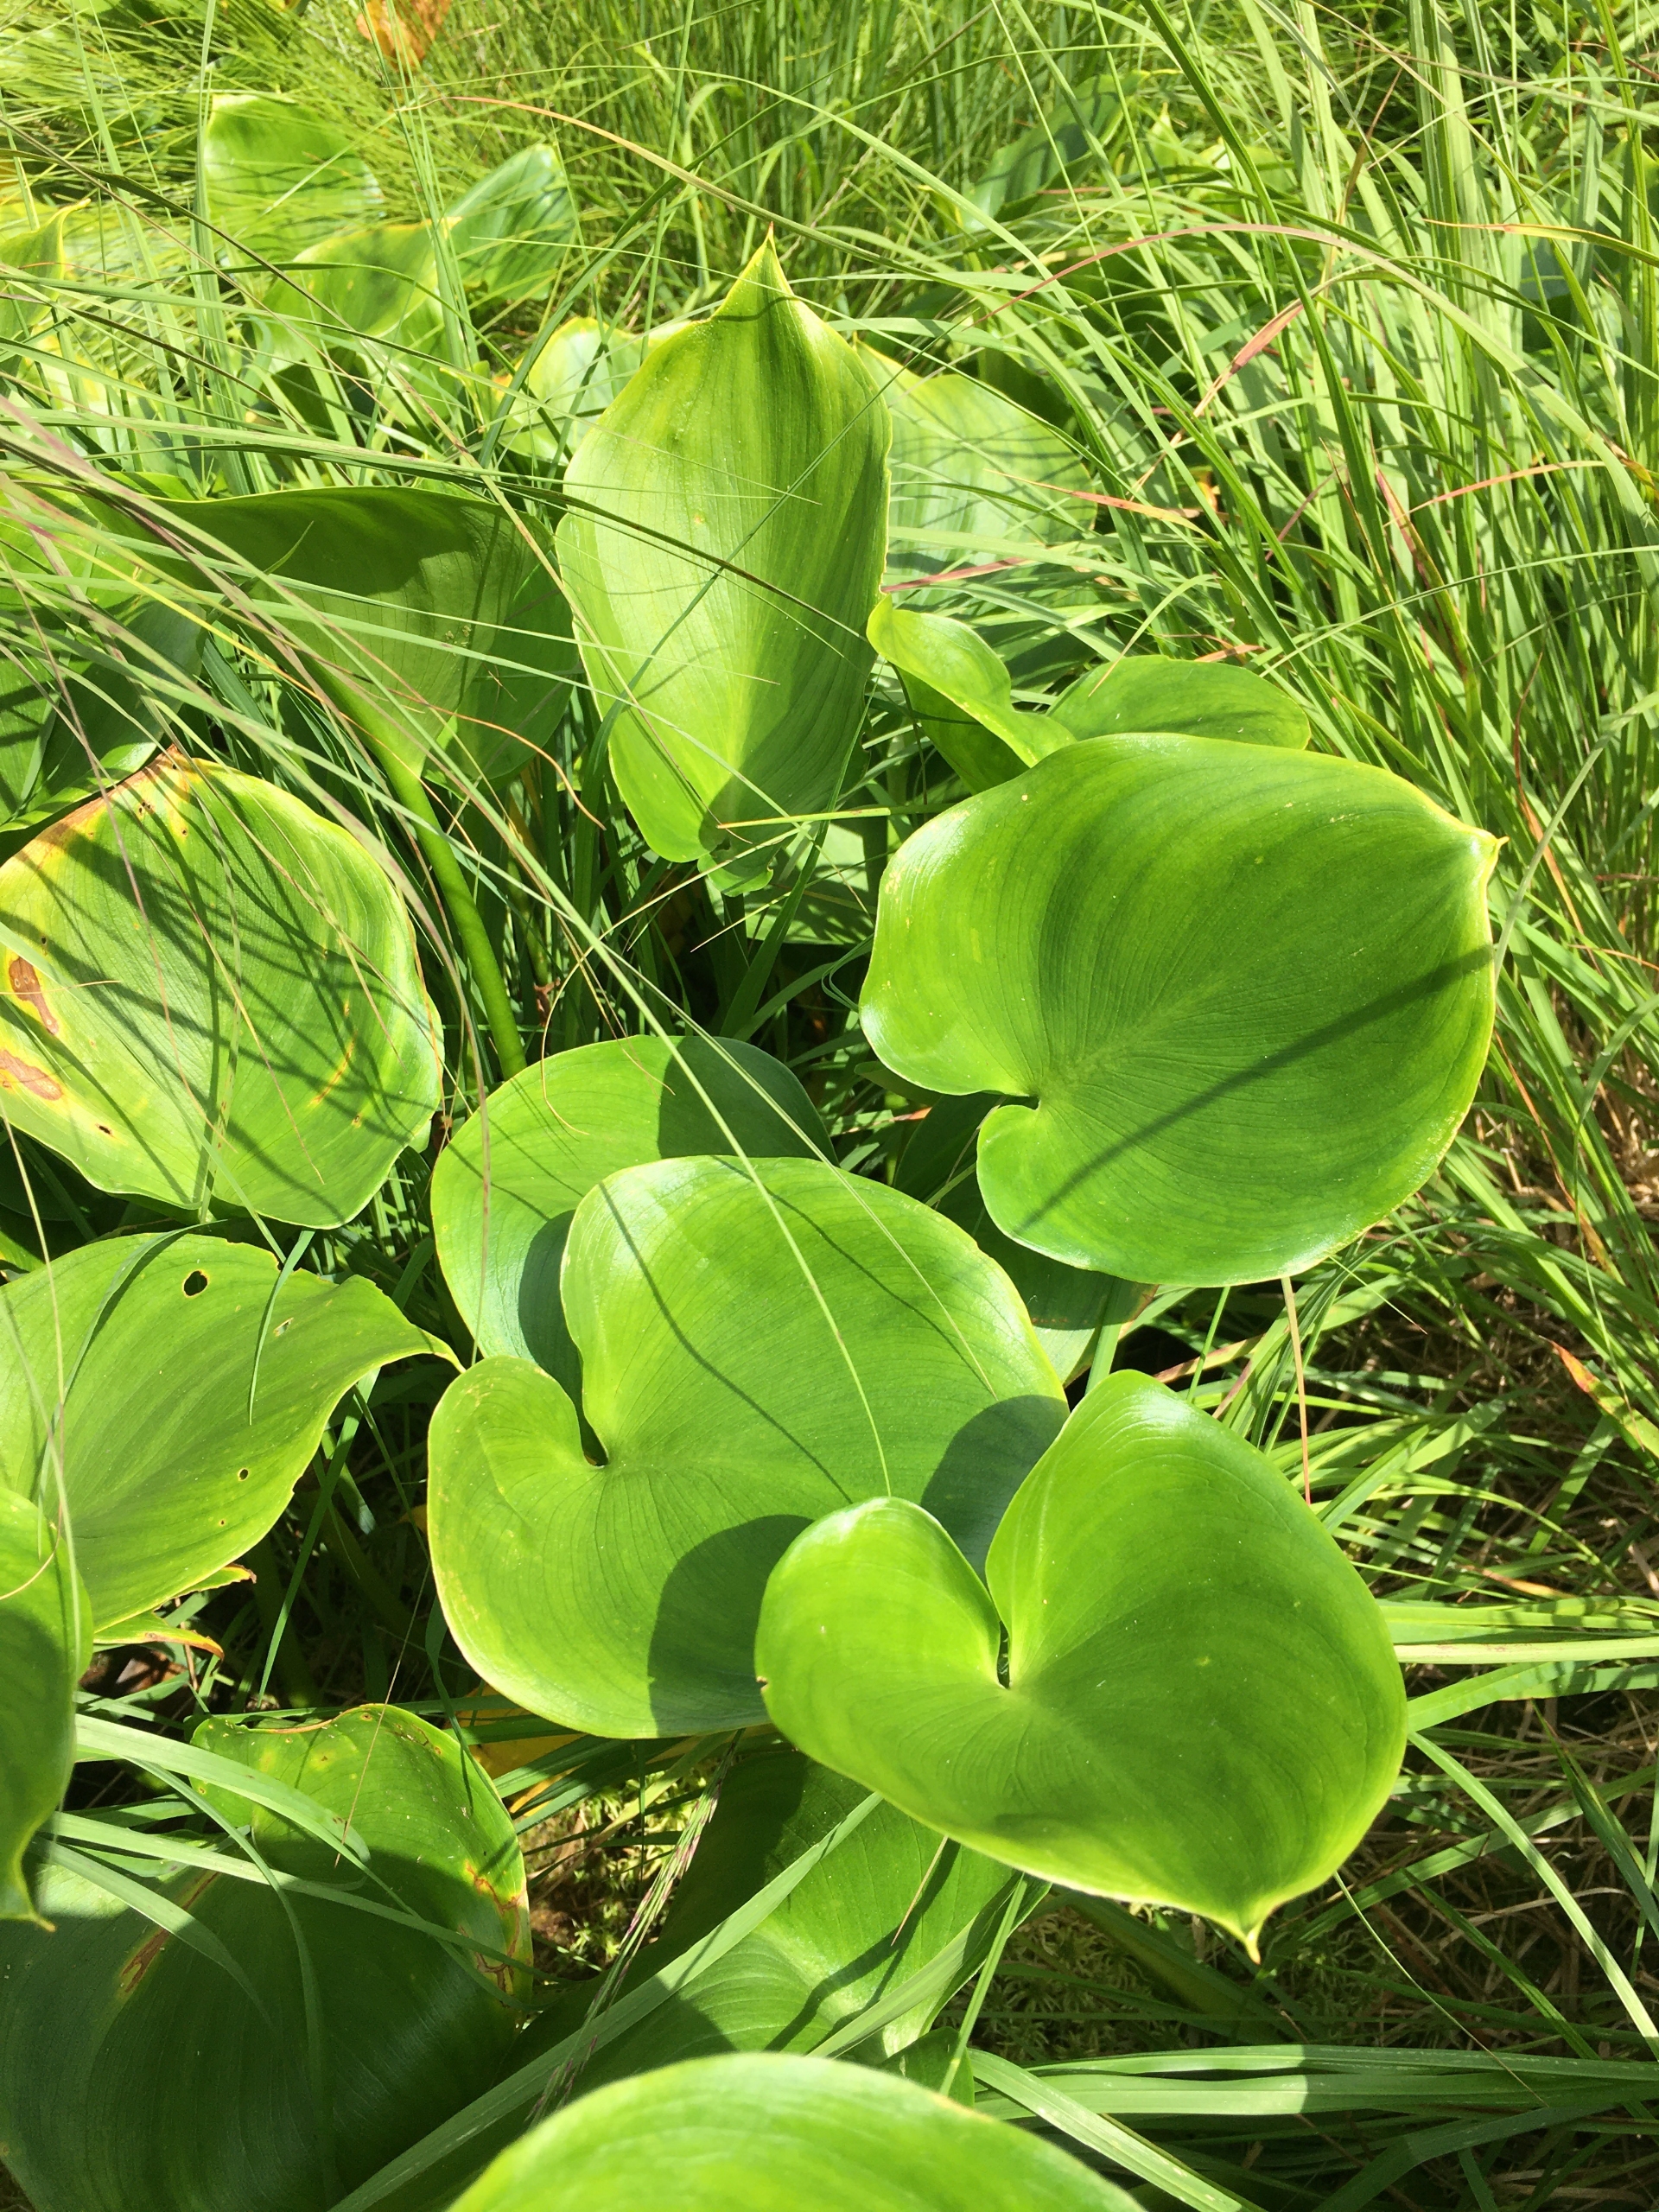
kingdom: Plantae
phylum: Tracheophyta
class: Liliopsida
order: Alismatales
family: Araceae
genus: Calla
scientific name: Calla palustris
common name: Kærmysse
